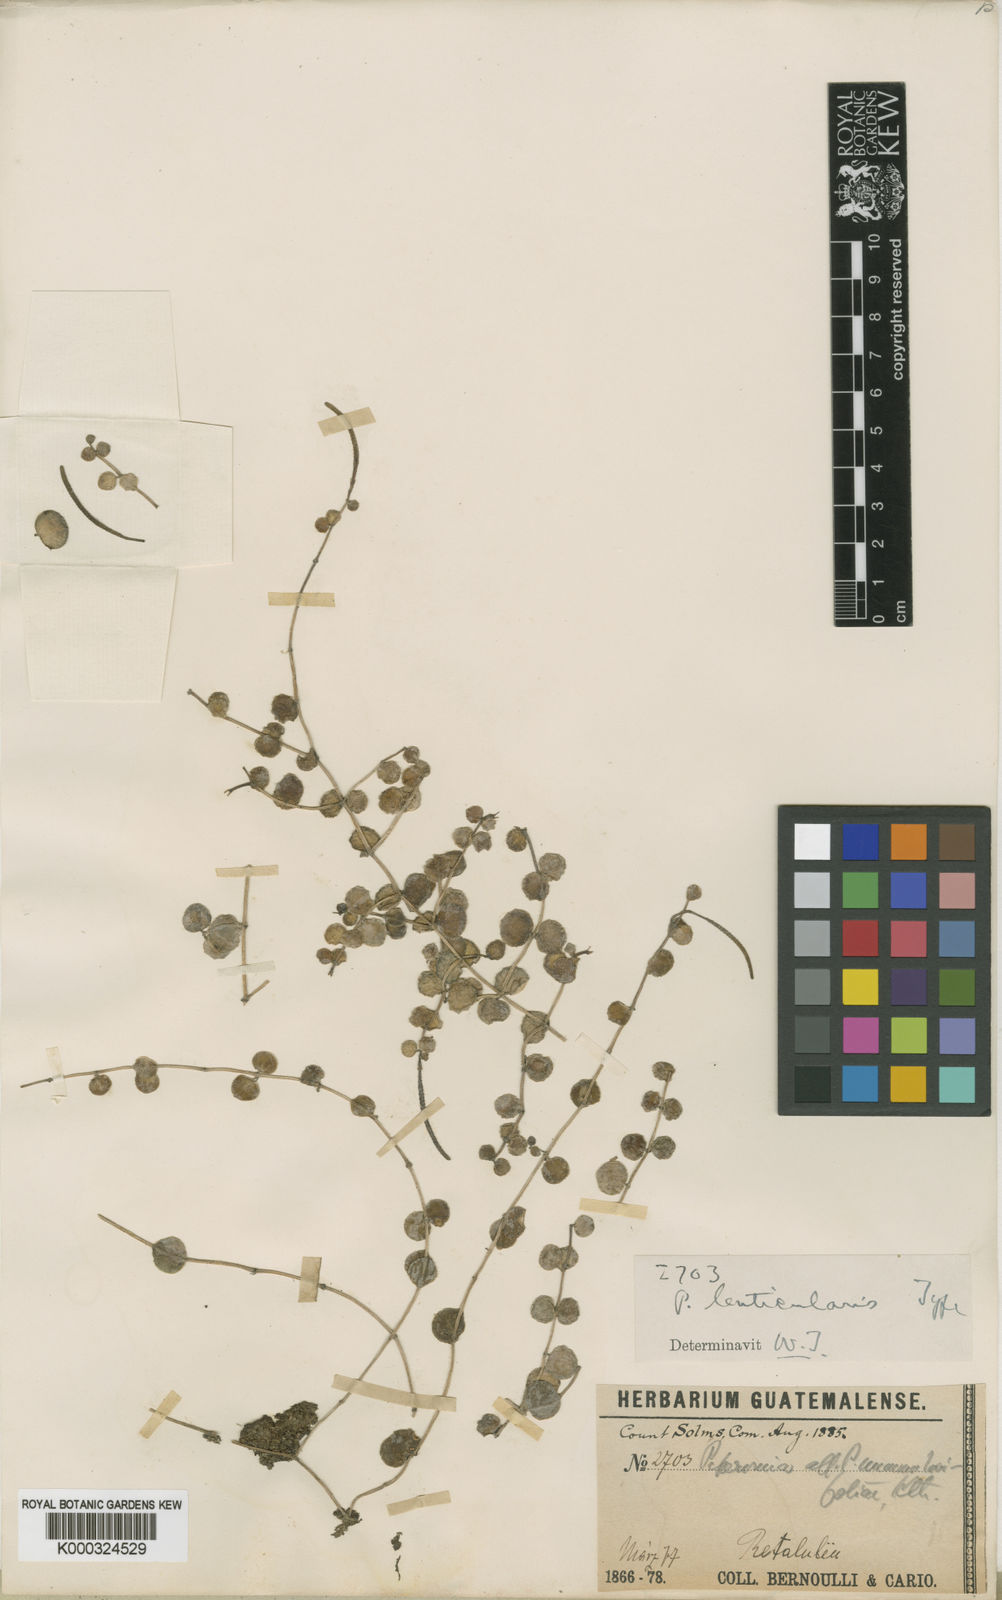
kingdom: Plantae
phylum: Tracheophyta
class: Magnoliopsida
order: Piperales
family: Piperaceae
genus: Peperomia
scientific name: Peperomia cyclophylla
